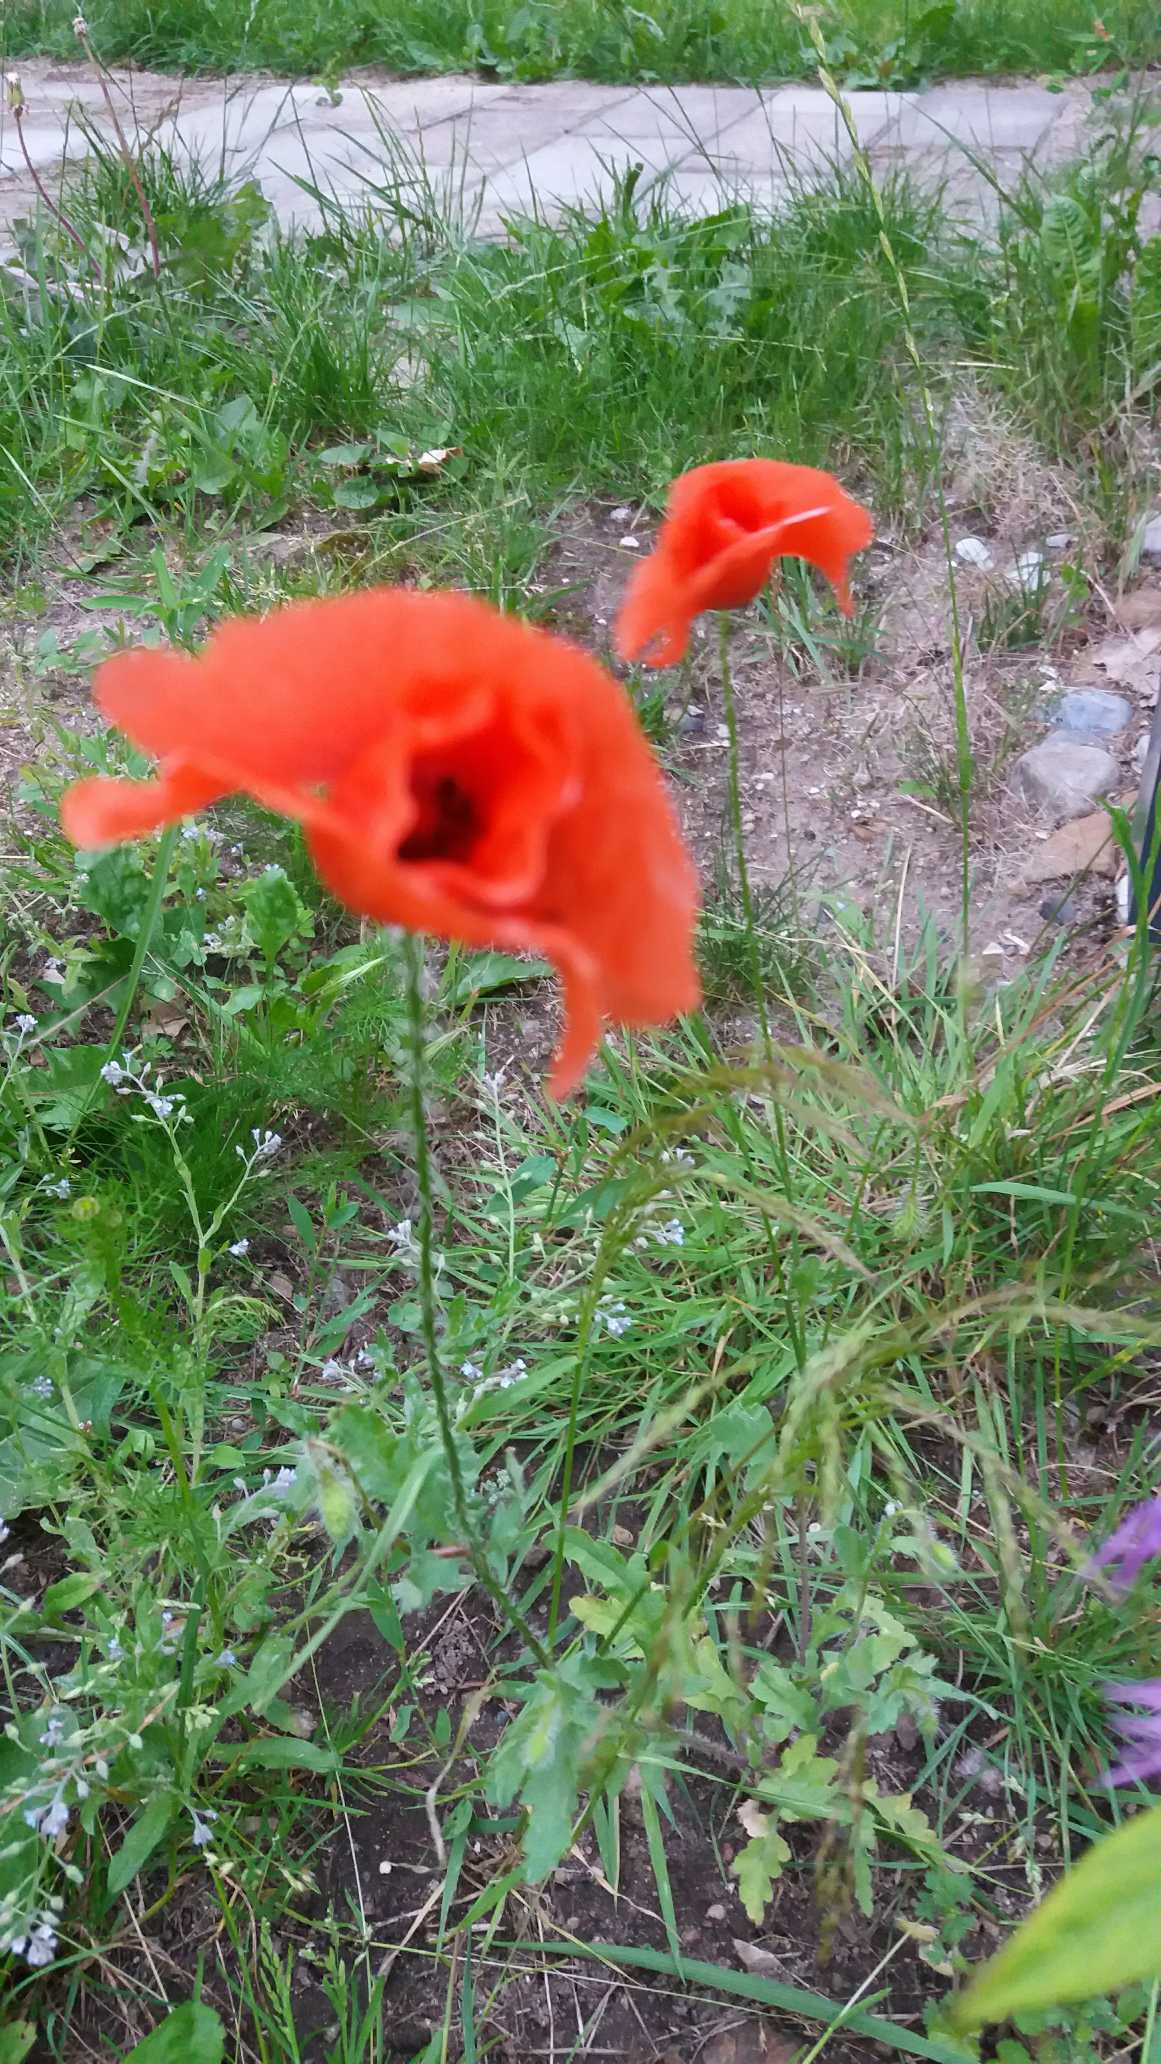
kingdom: Plantae
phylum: Tracheophyta
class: Magnoliopsida
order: Ranunculales
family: Papaveraceae
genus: Papaver
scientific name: Papaver
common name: Valmueslægten
